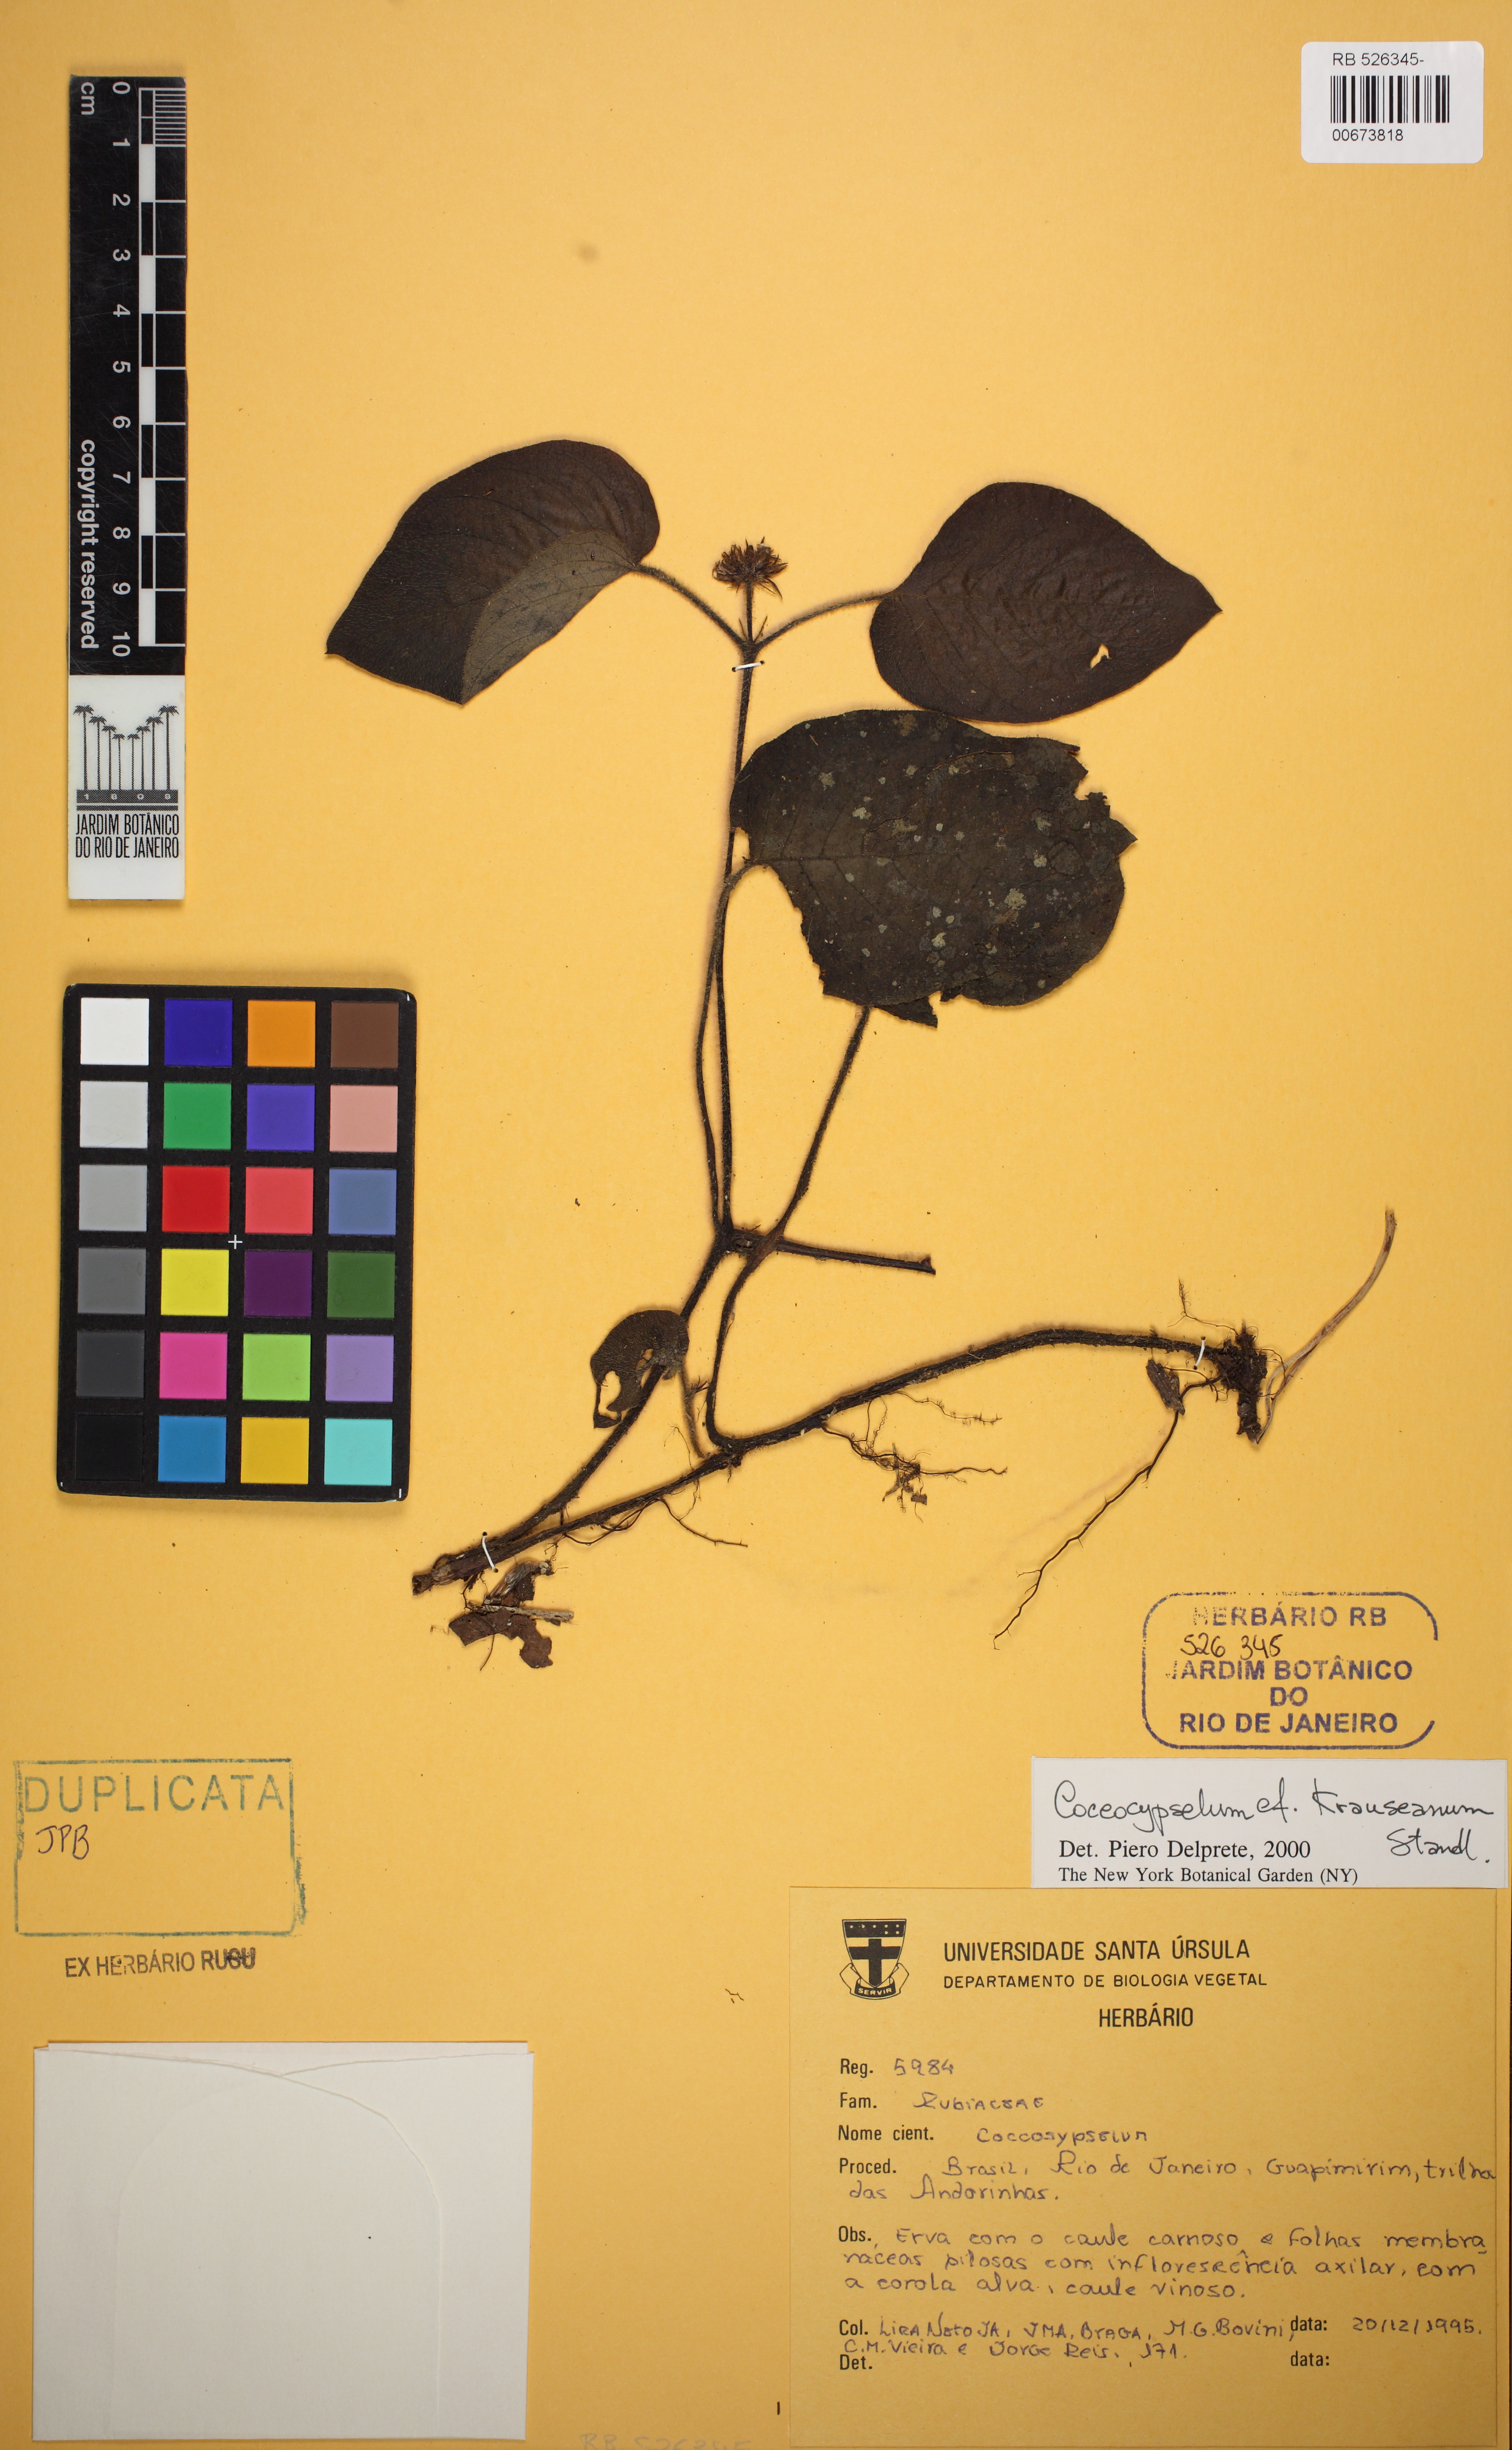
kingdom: Plantae
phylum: Tracheophyta
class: Magnoliopsida
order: Gentianales
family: Rubiaceae
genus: Coccocypselum
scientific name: Coccocypselum geophiloides
